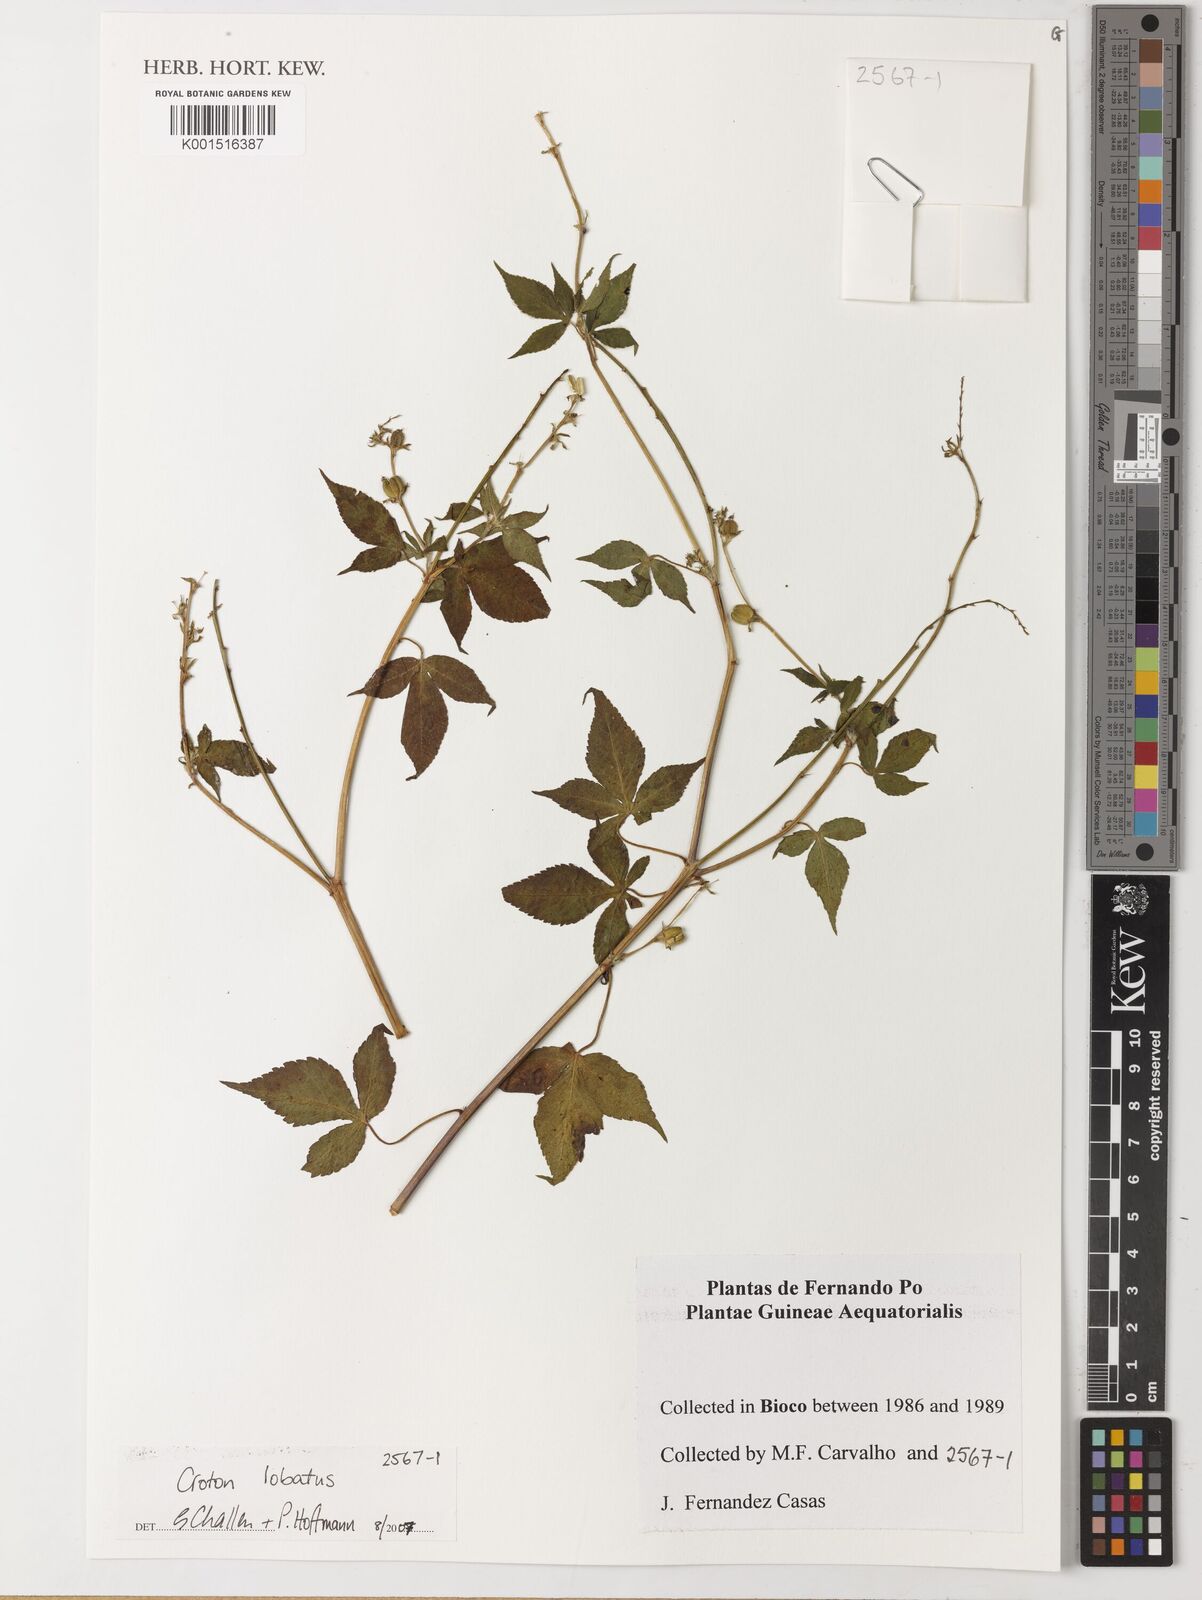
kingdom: Plantae
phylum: Tracheophyta
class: Magnoliopsida
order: Malpighiales
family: Euphorbiaceae
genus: Astraea
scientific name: Astraea lobata
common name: Lobed croton
